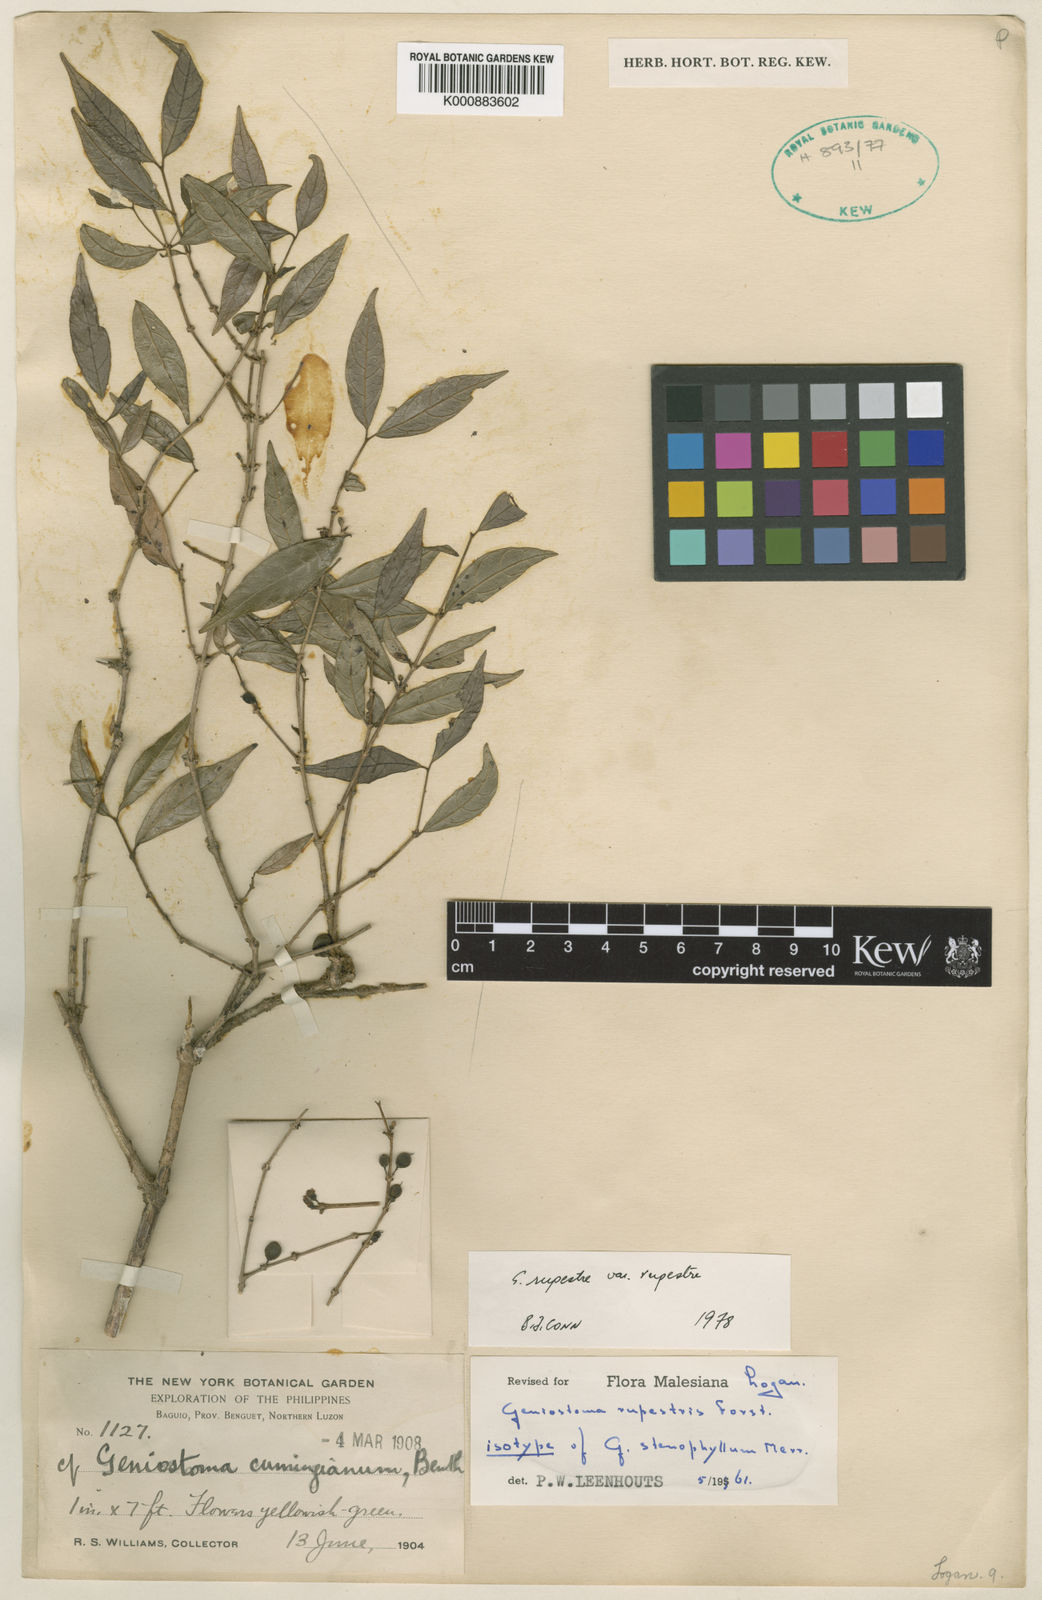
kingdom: Plantae
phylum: Tracheophyta
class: Magnoliopsida
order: Gentianales
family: Loganiaceae
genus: Geniostoma
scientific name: Geniostoma rupestre
